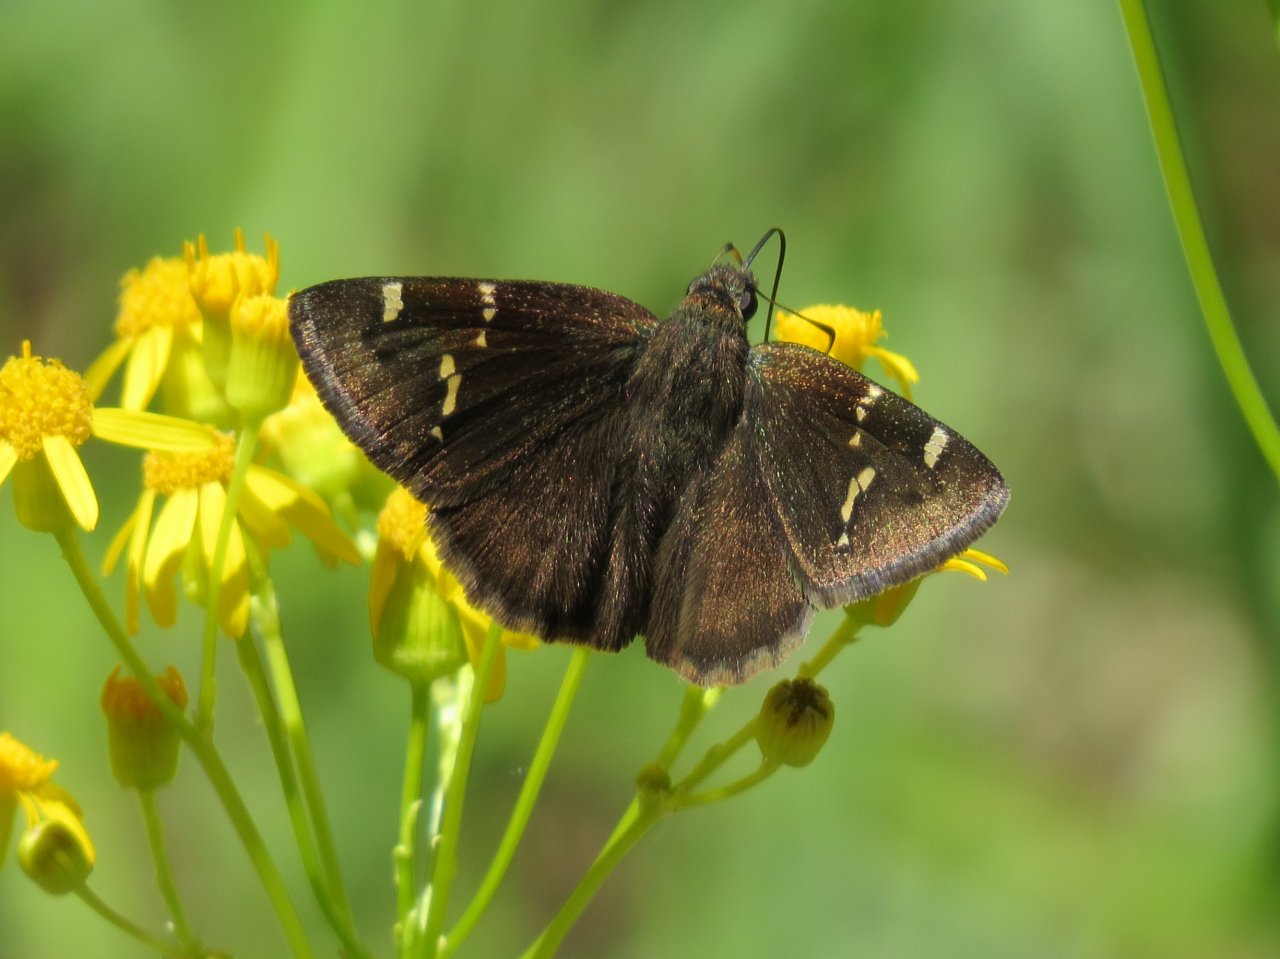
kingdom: Animalia
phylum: Arthropoda
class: Insecta
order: Lepidoptera
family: Hesperiidae
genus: Autochton
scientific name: Autochton
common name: Southern Cloudywing
